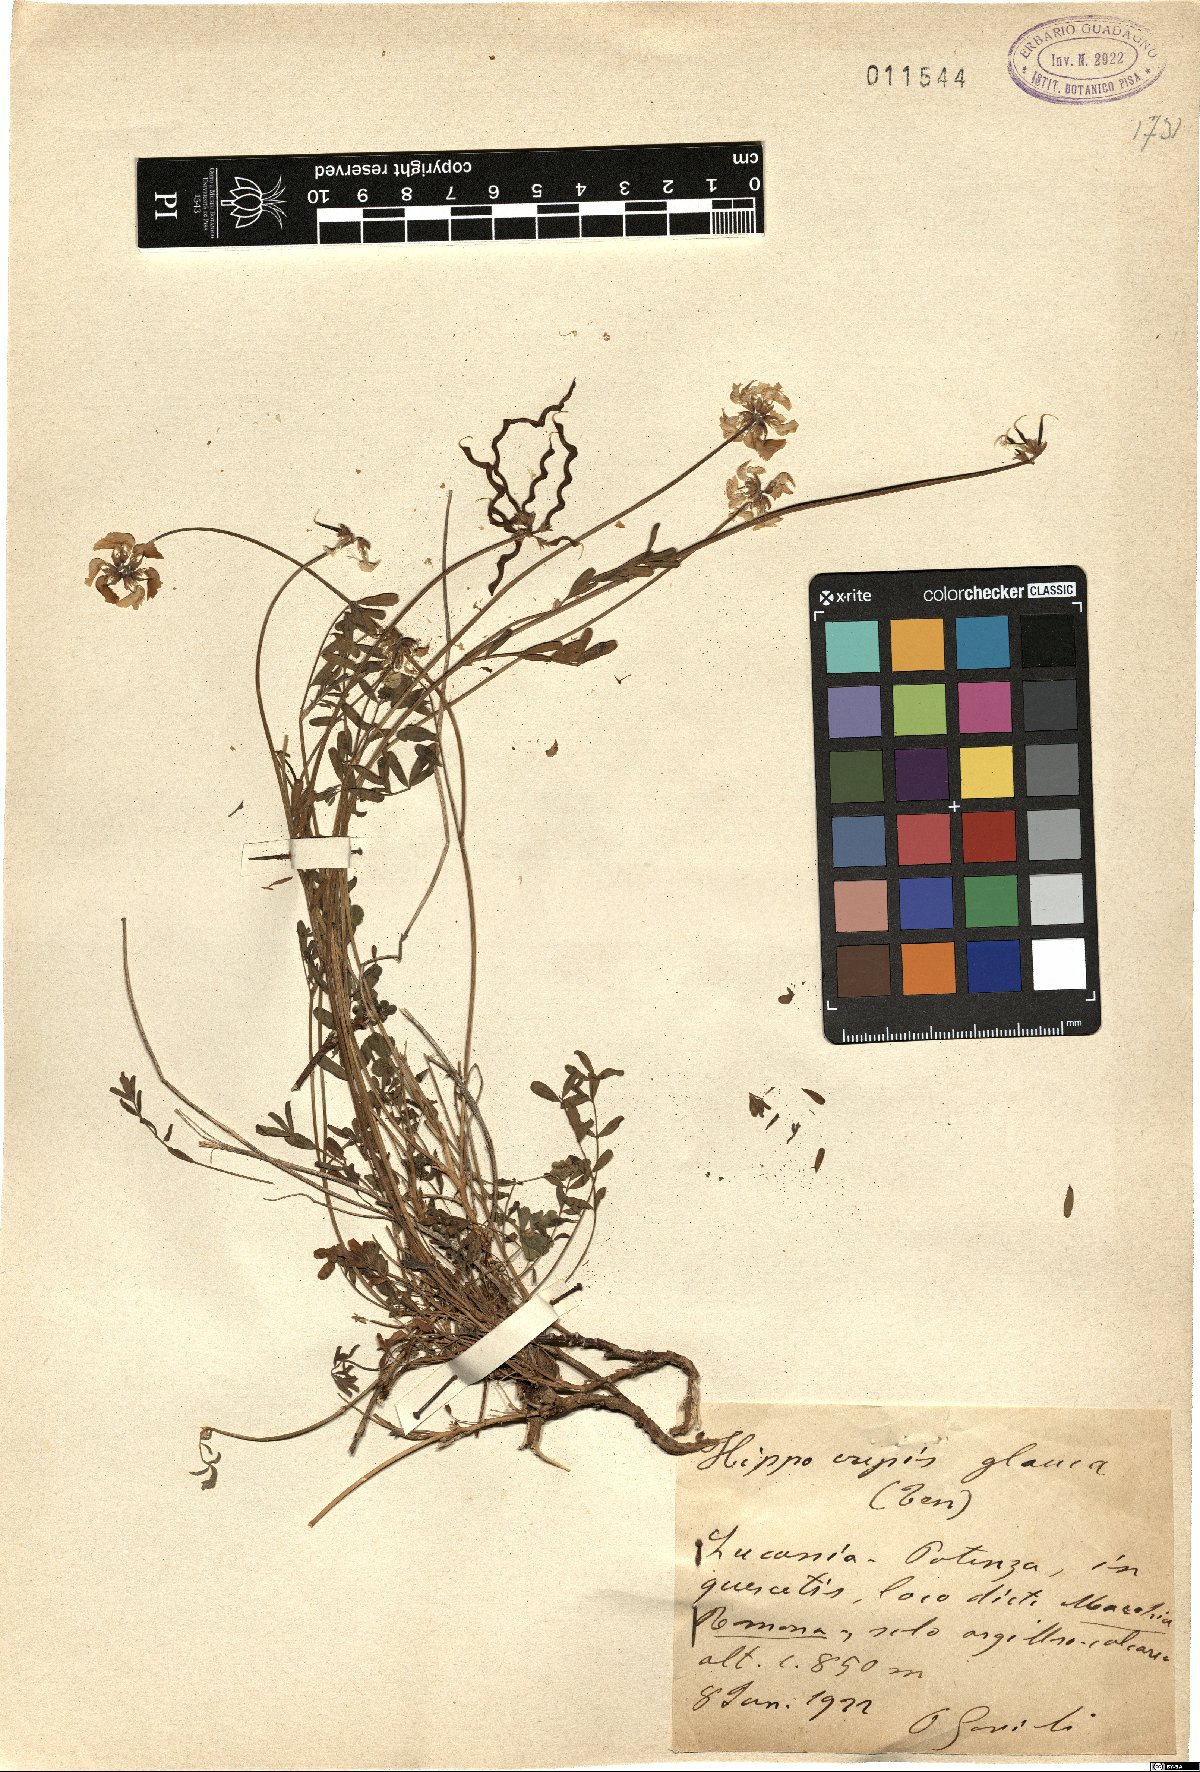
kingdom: Plantae
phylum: Tracheophyta
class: Magnoliopsida
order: Fabales
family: Fabaceae
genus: Hippocrepis
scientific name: Hippocrepis glauca
